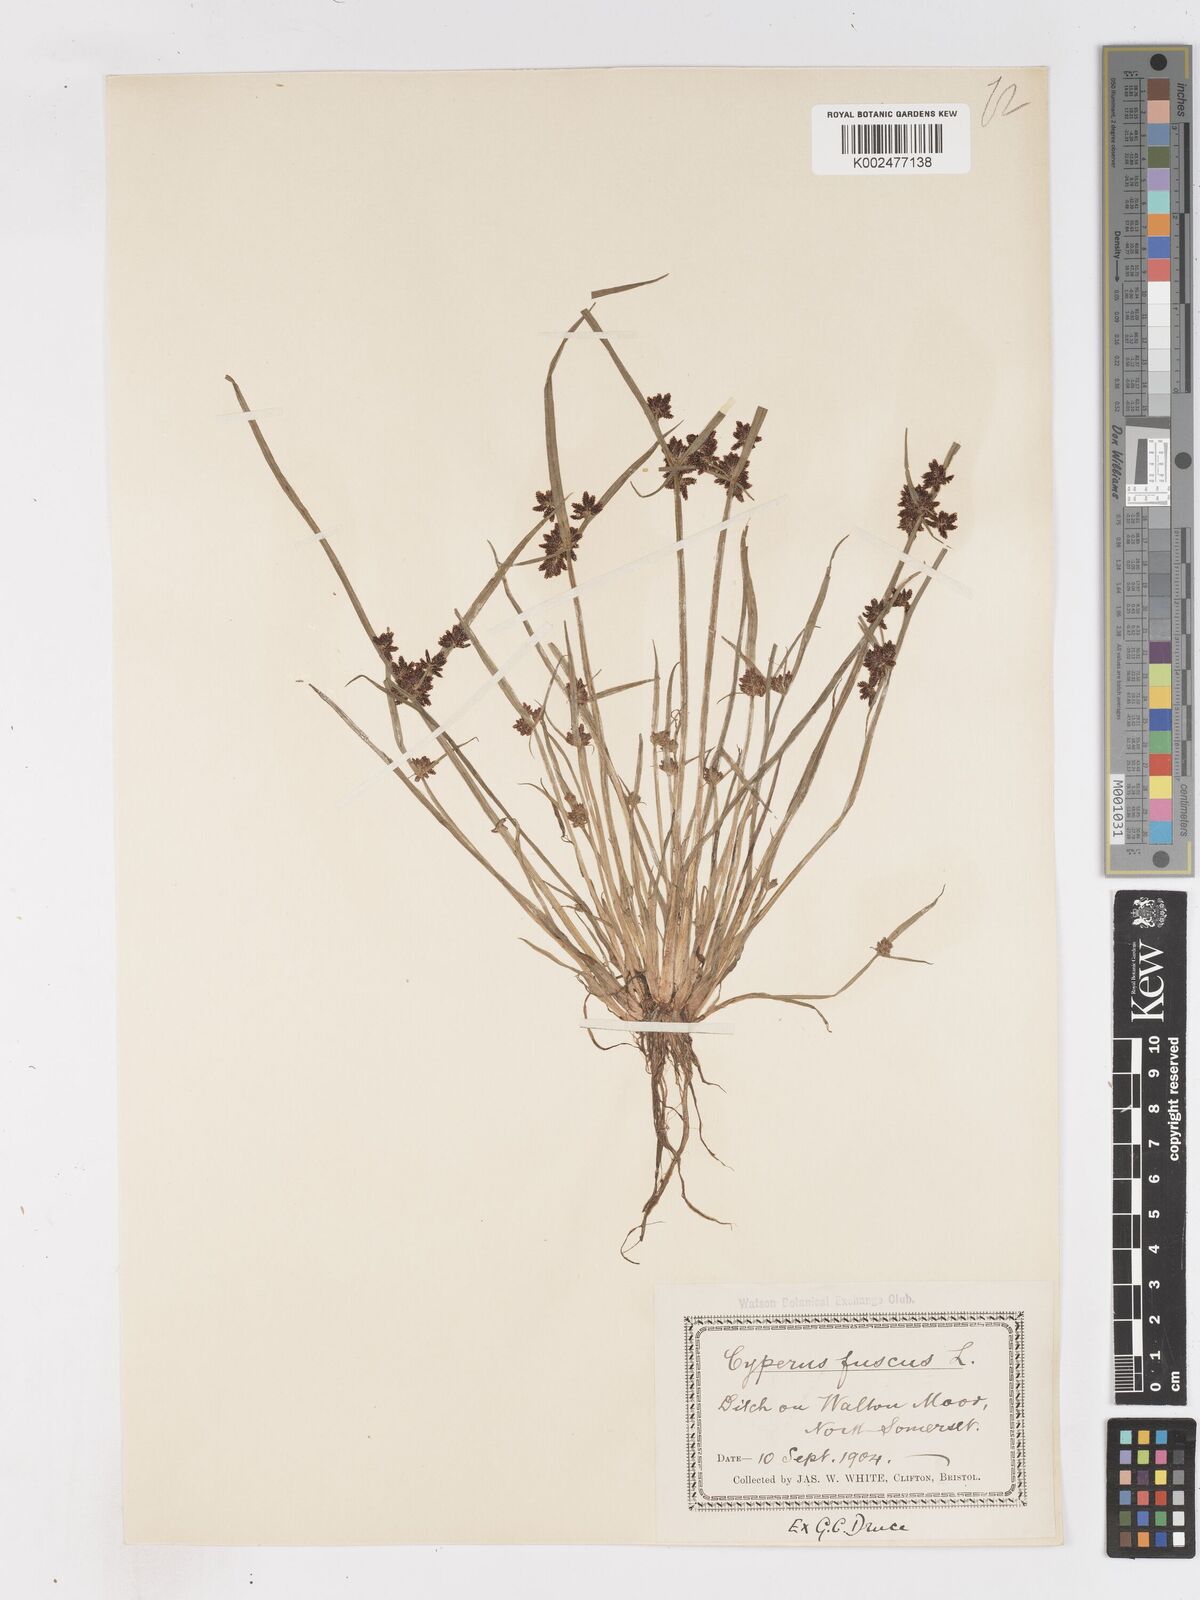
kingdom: Plantae
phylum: Tracheophyta
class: Liliopsida
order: Poales
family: Cyperaceae
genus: Cyperus
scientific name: Cyperus fuscus
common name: Brown galingale
